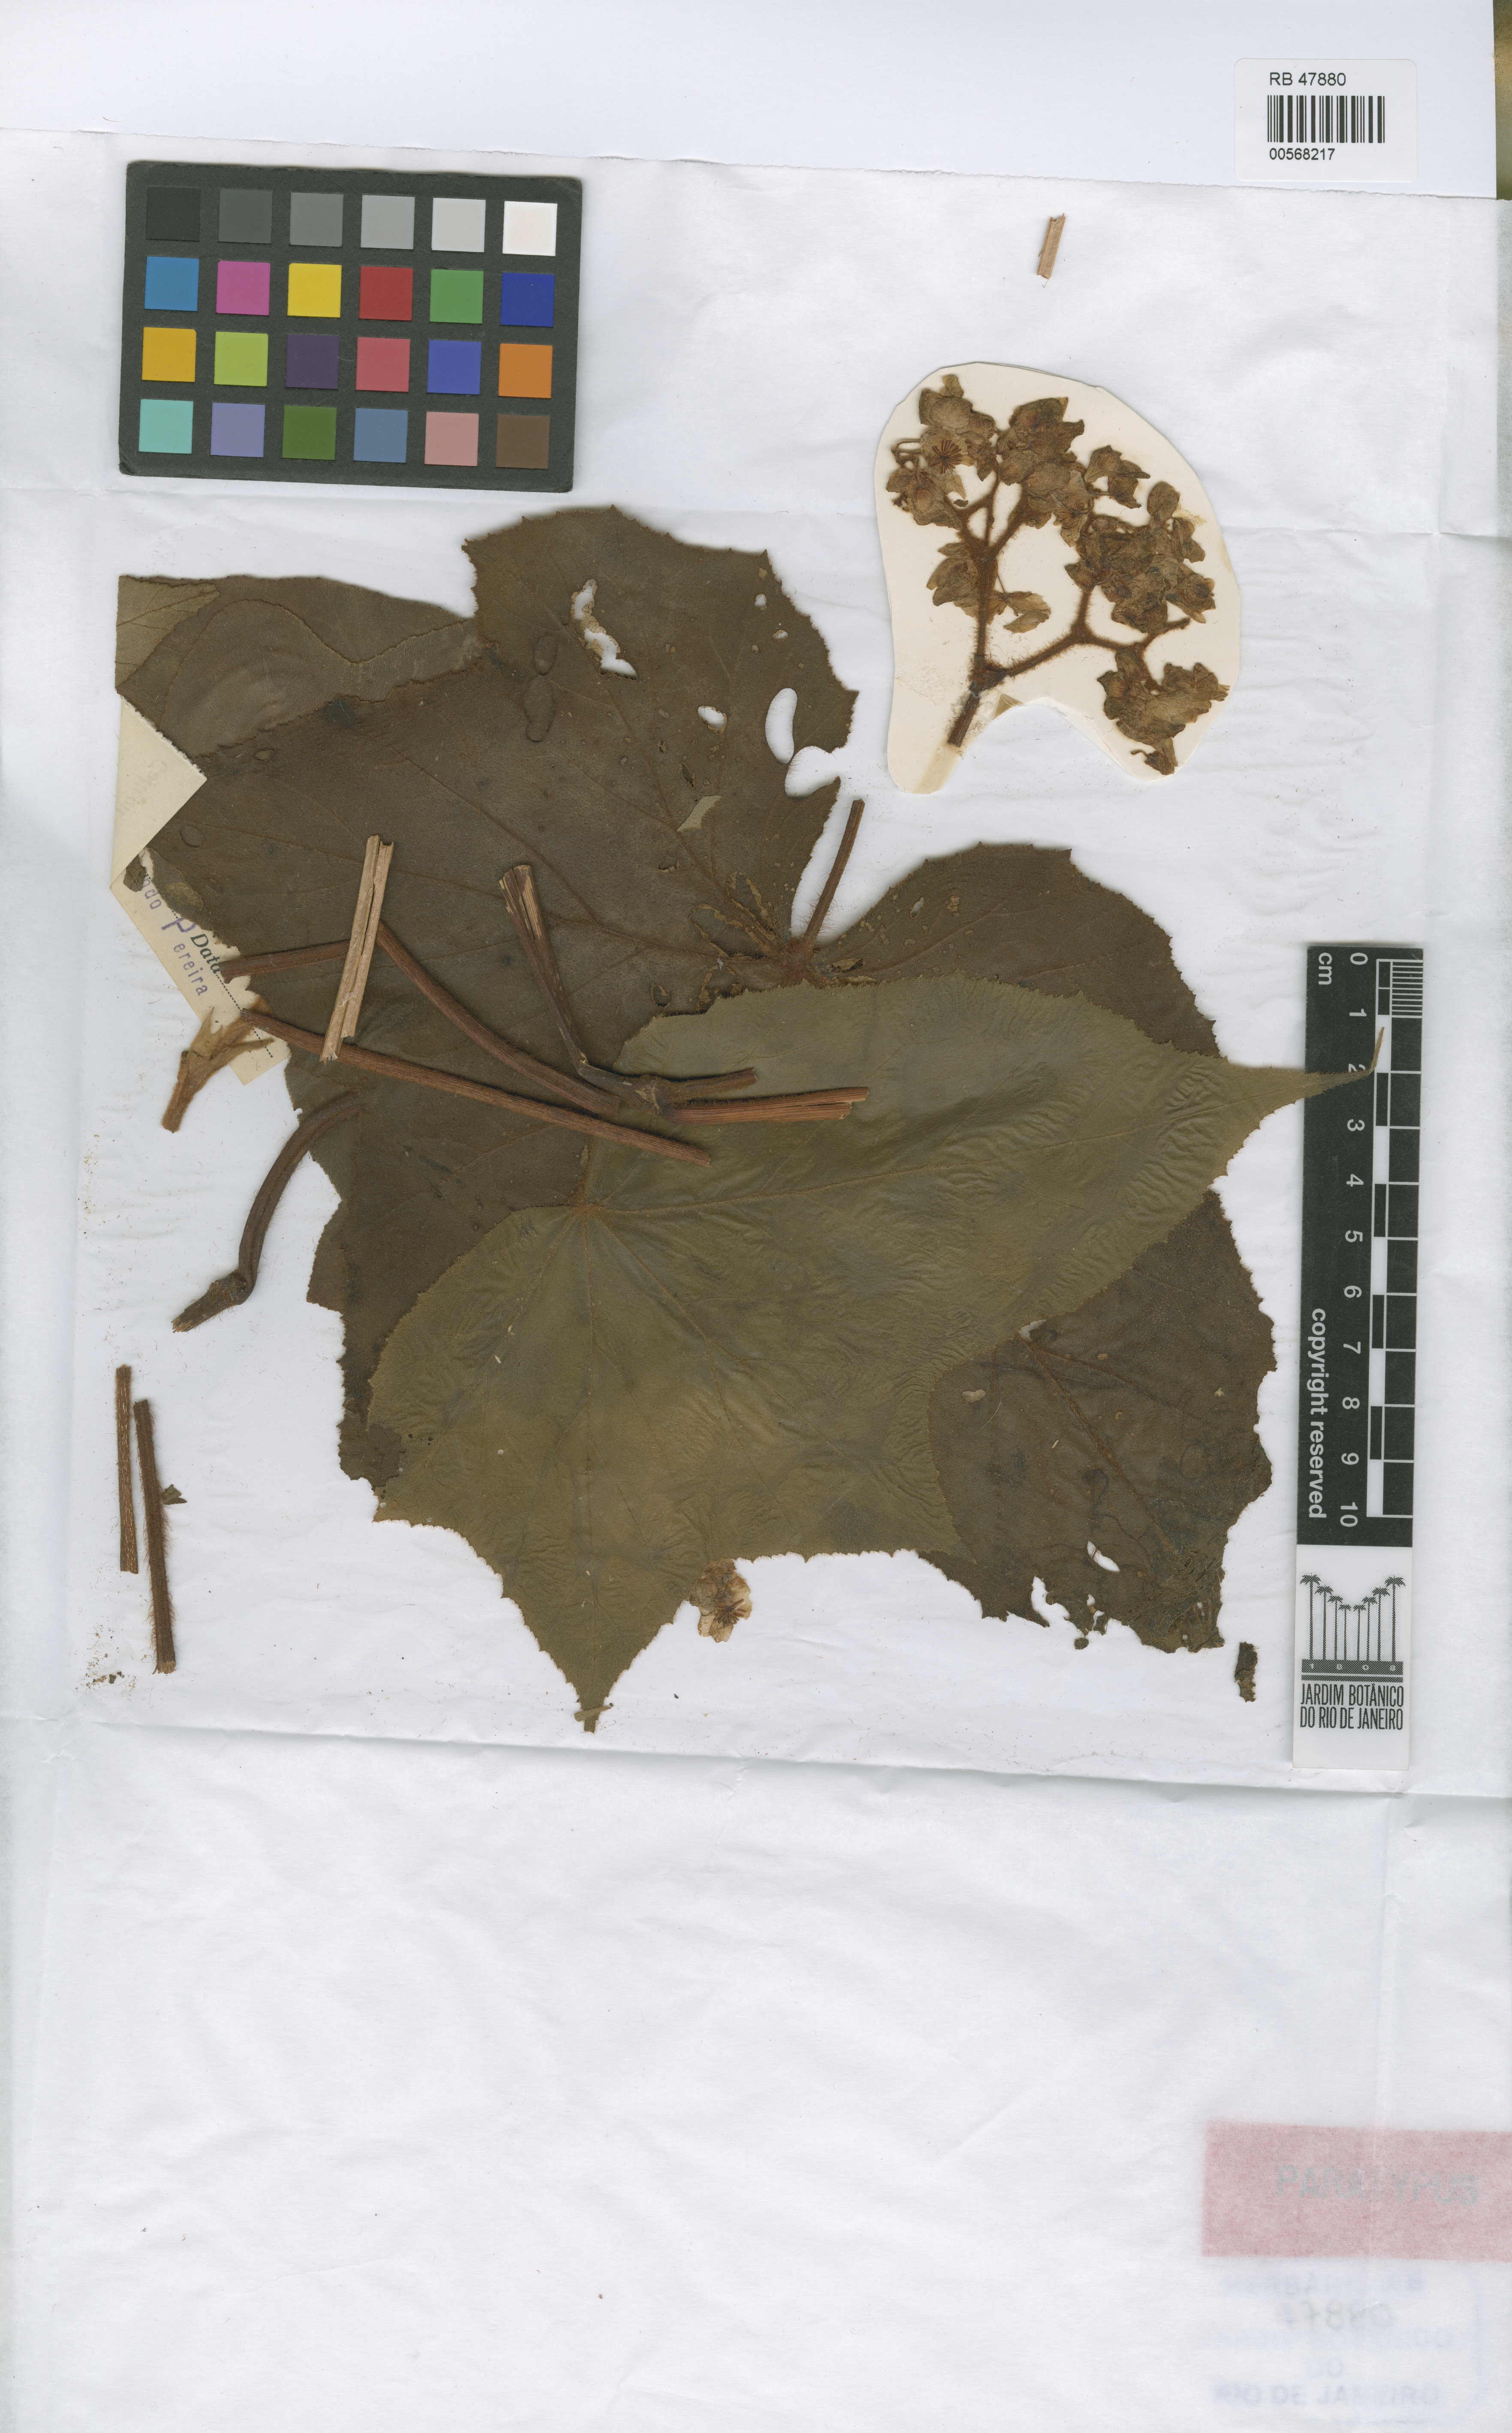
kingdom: Plantae
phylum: Tracheophyta
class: Magnoliopsida
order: Cucurbitales
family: Begoniaceae
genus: Begonia
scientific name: Begonia jocelinoi
